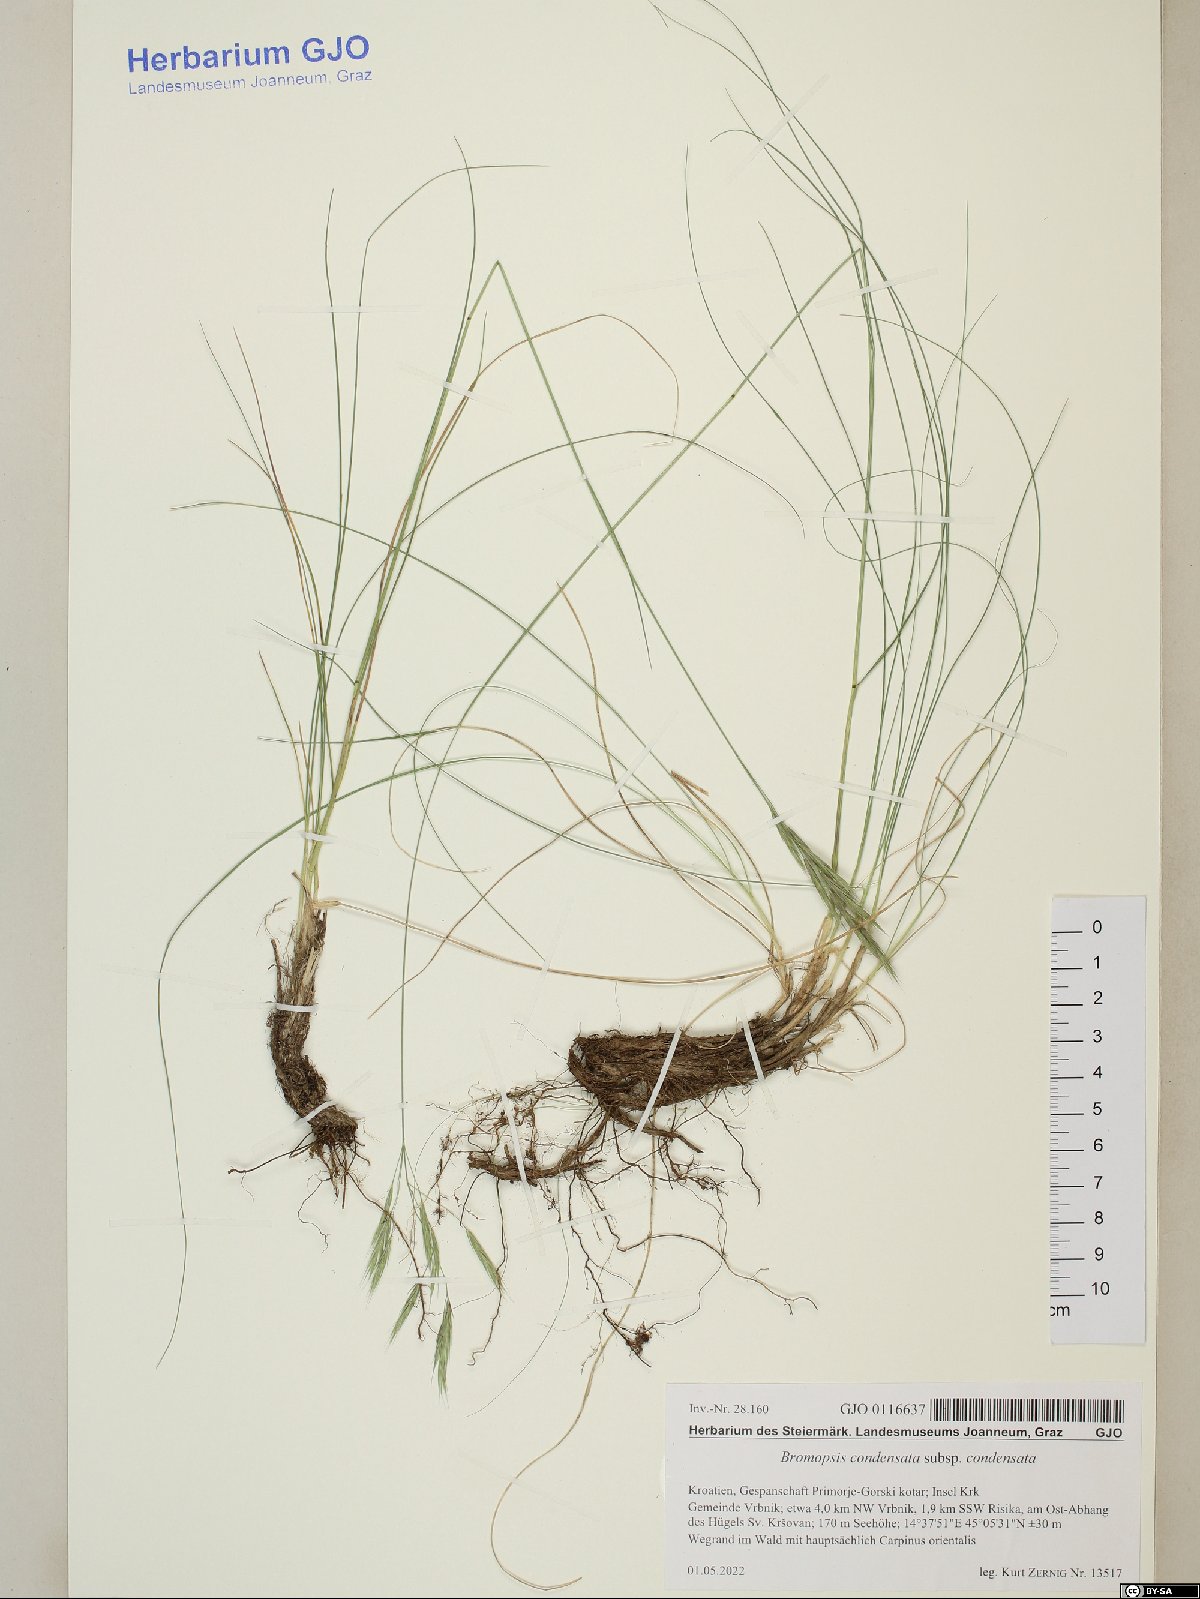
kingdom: Plantae
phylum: Tracheophyta
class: Liliopsida
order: Poales
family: Poaceae
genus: Bromus
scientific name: Bromus condensatus
